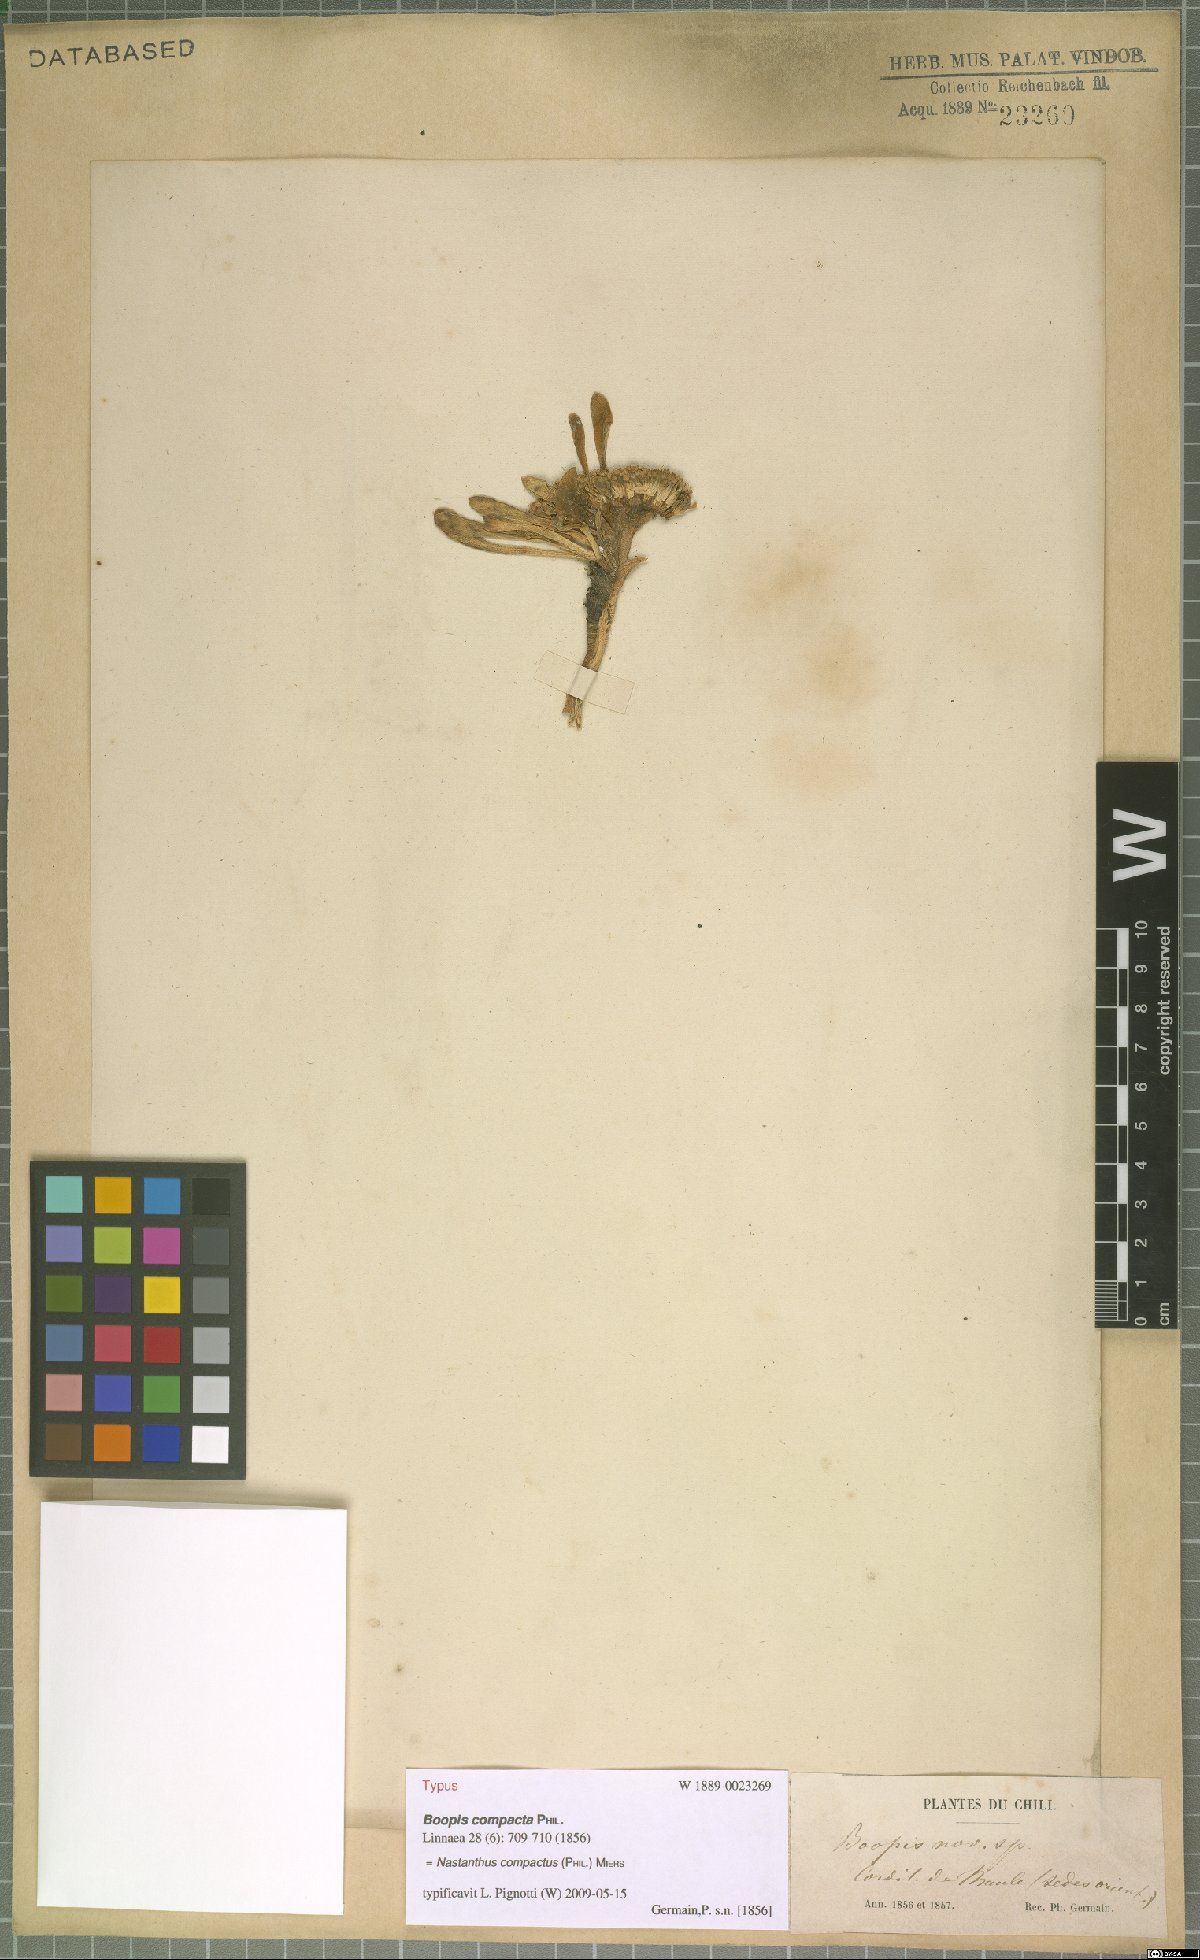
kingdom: Plantae
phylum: Tracheophyta
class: Magnoliopsida
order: Asterales
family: Calyceraceae
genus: Gamocarpha
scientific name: Gamocarpha compacta
